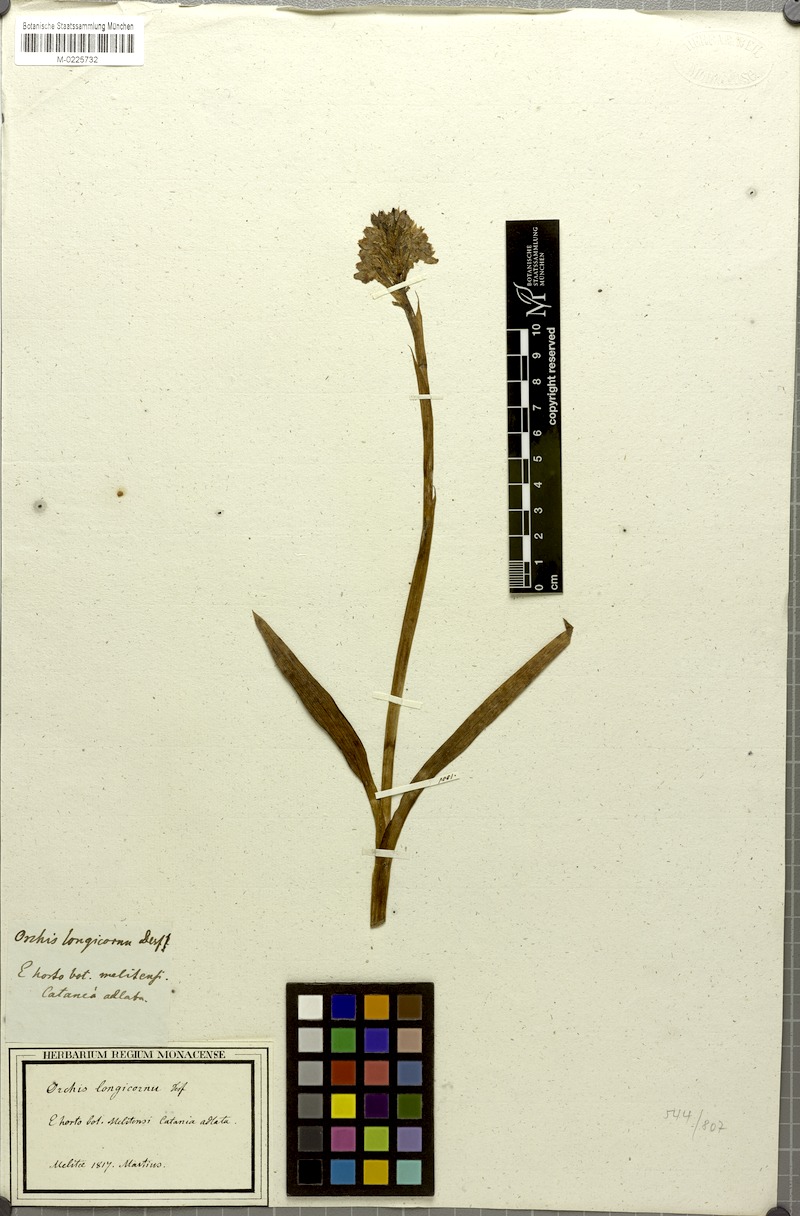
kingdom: Plantae
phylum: Tracheophyta
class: Liliopsida
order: Asparagales
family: Orchidaceae
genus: Anacamptis
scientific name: Anacamptis morio
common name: Green-winged orchid
